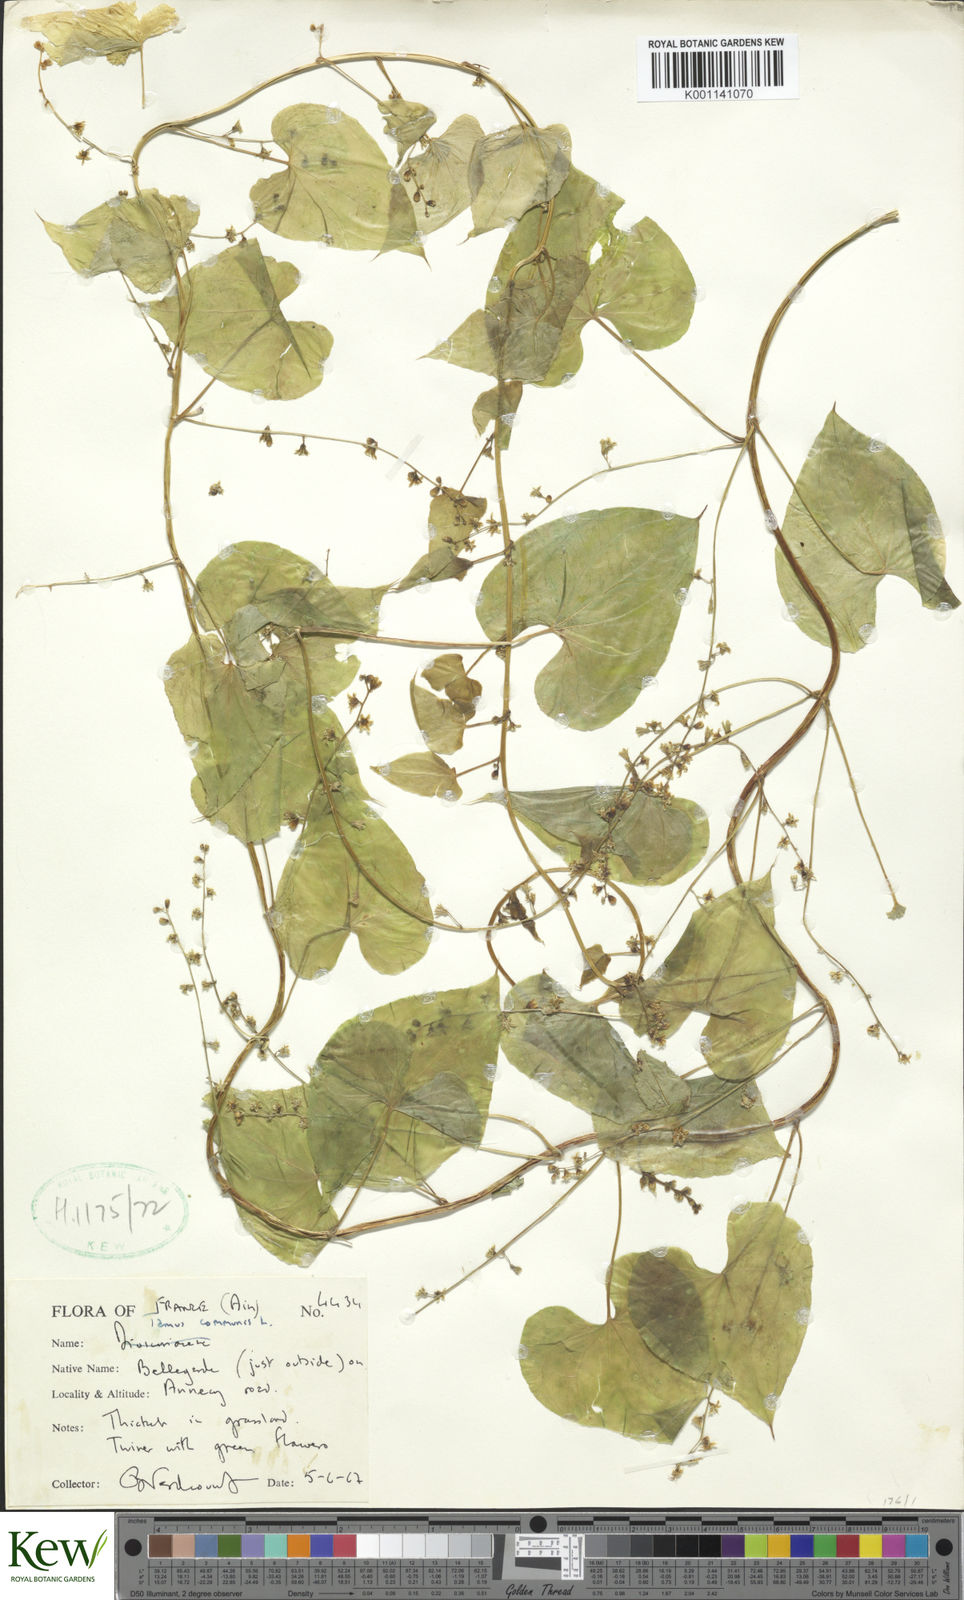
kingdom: Plantae
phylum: Tracheophyta
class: Liliopsida
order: Dioscoreales
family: Dioscoreaceae
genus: Dioscorea
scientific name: Dioscorea communis
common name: Black-bindweed
